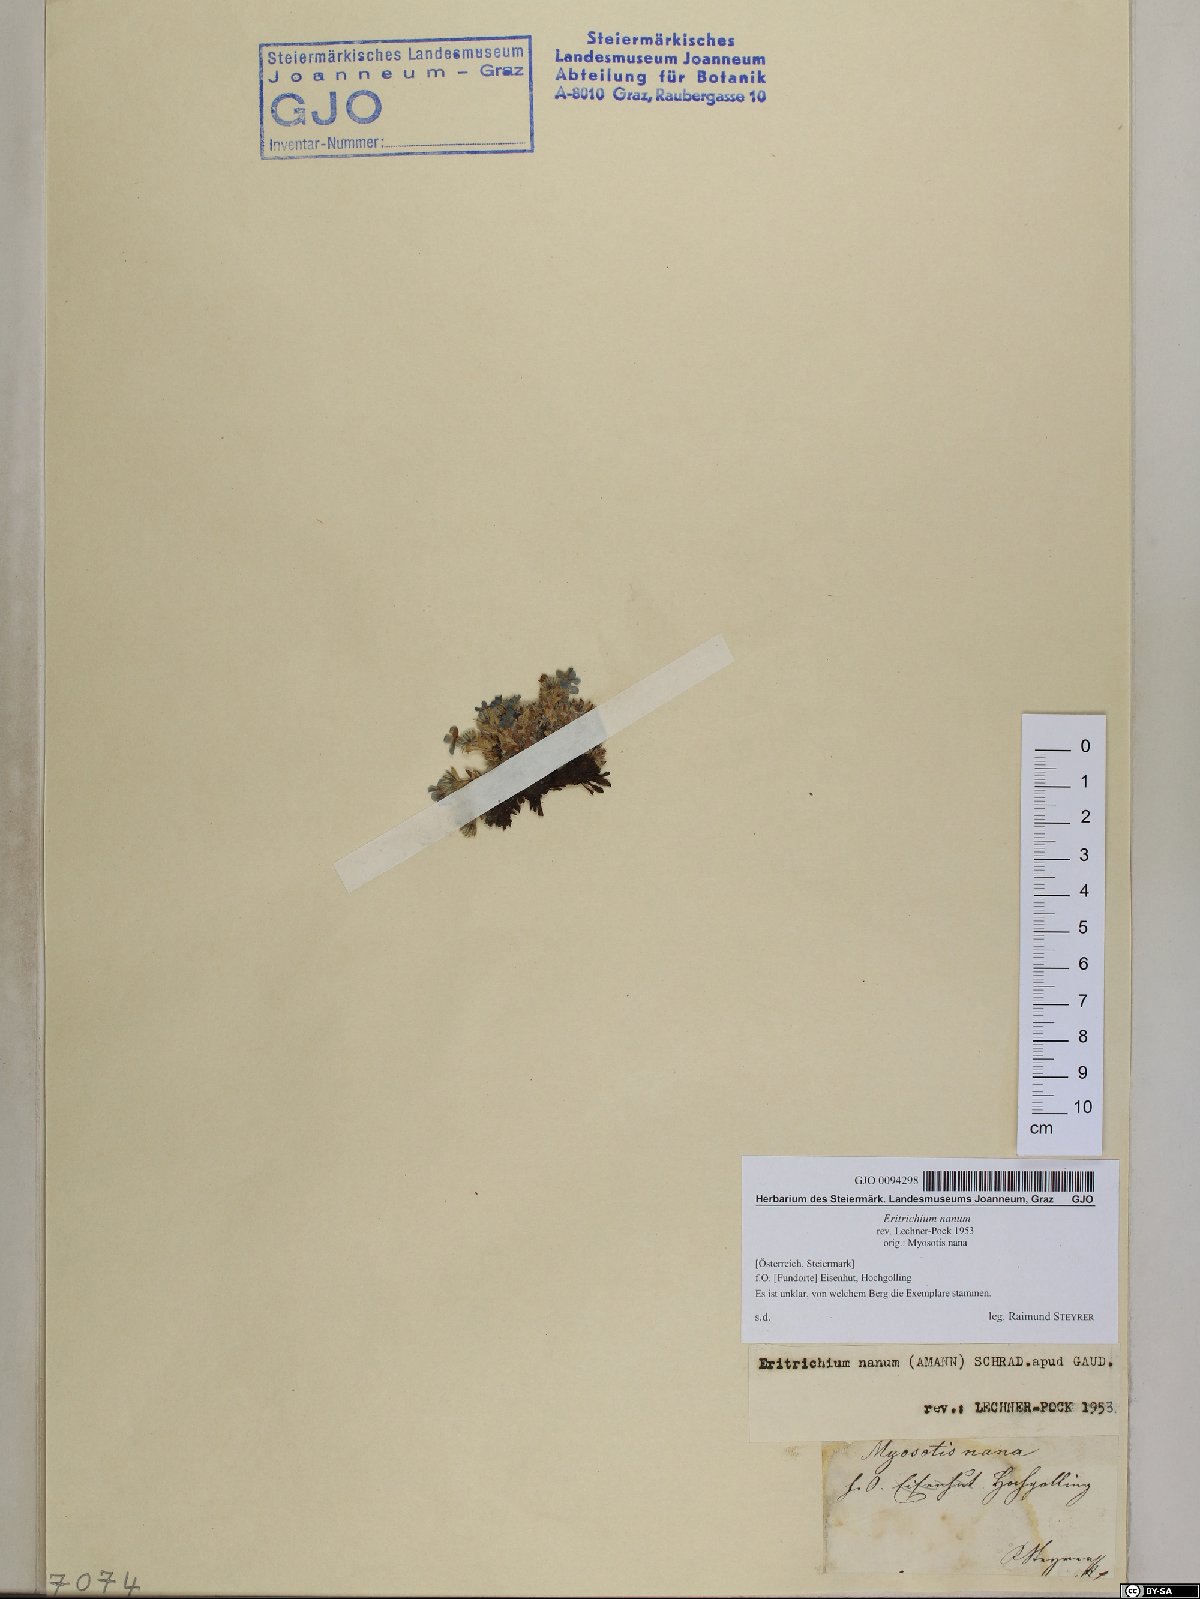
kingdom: Plantae
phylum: Tracheophyta
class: Magnoliopsida
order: Boraginales
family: Boraginaceae
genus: Eritrichium
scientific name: Eritrichium nanum
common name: King-of-the-alps
